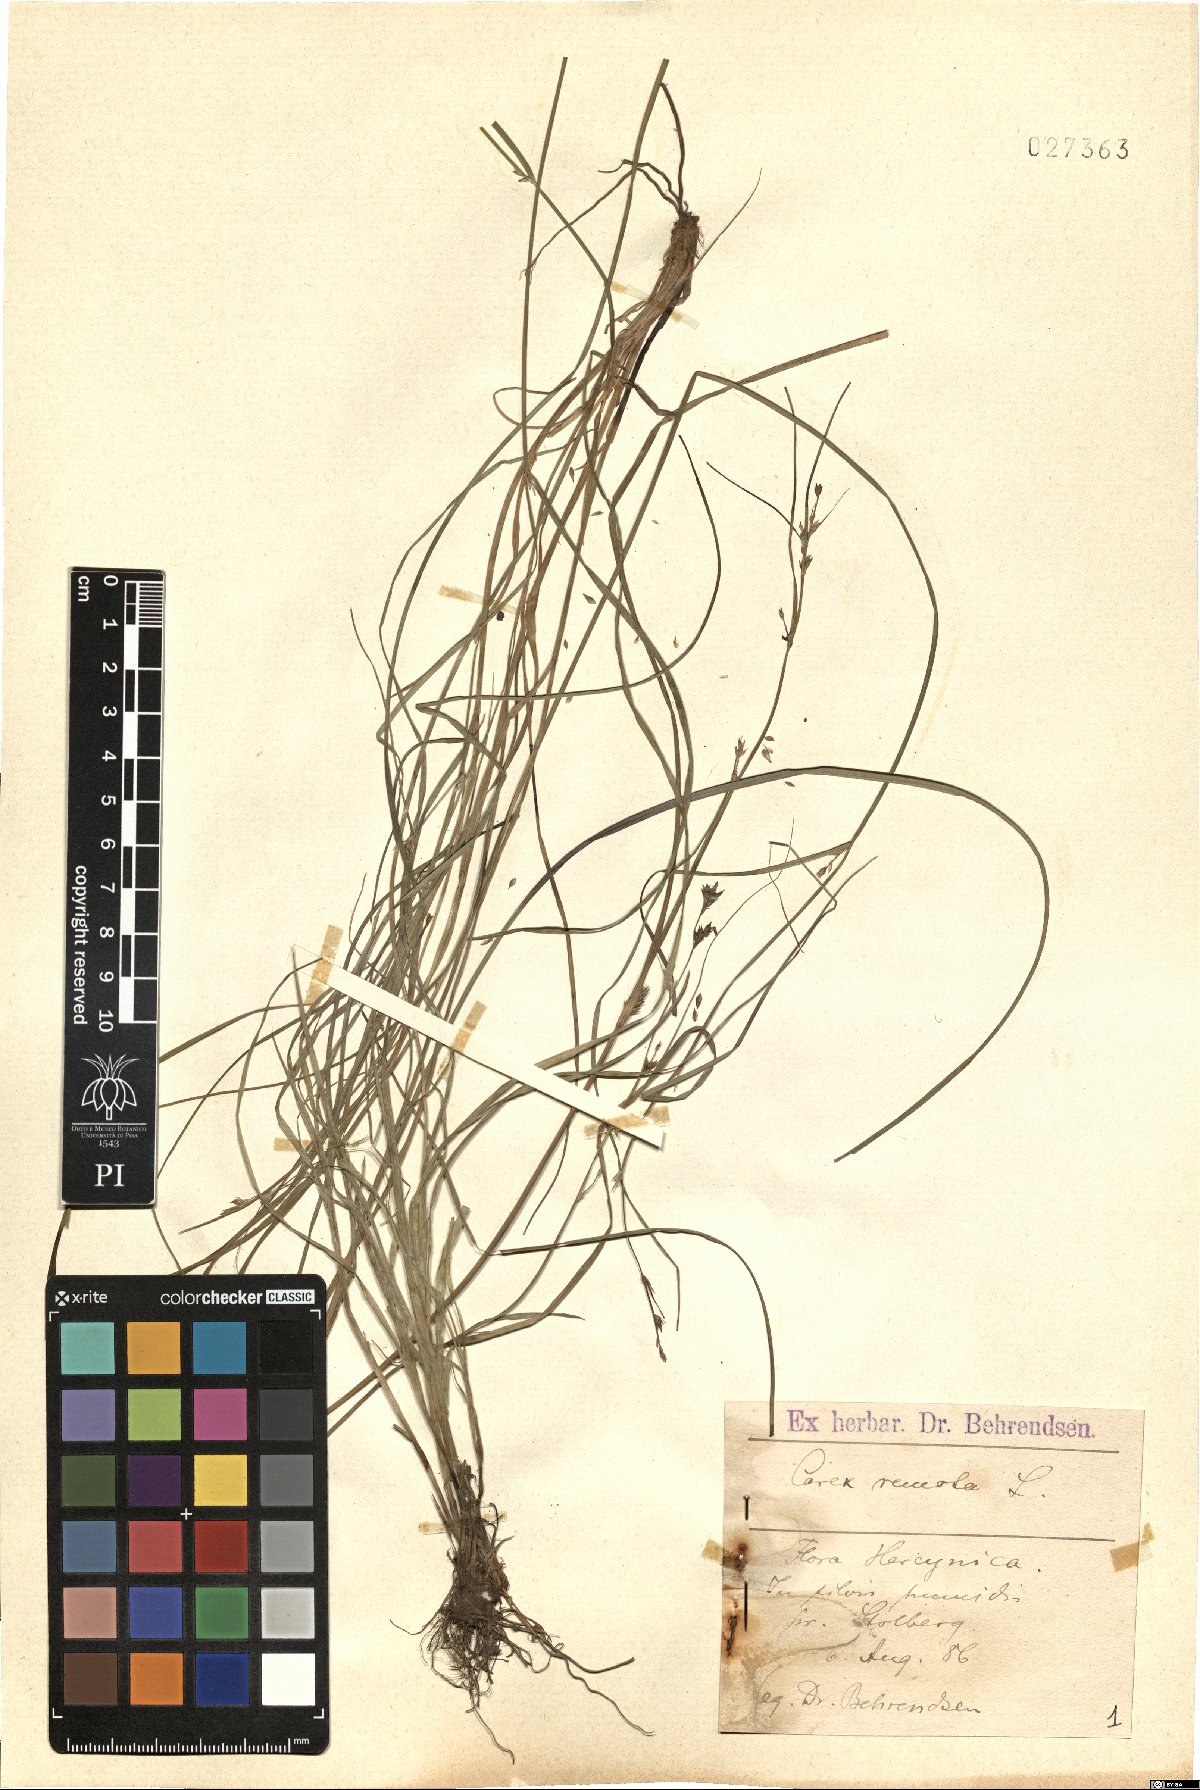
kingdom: Plantae
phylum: Tracheophyta
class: Liliopsida
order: Poales
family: Cyperaceae
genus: Carex
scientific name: Carex remota
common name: Remote sedge
